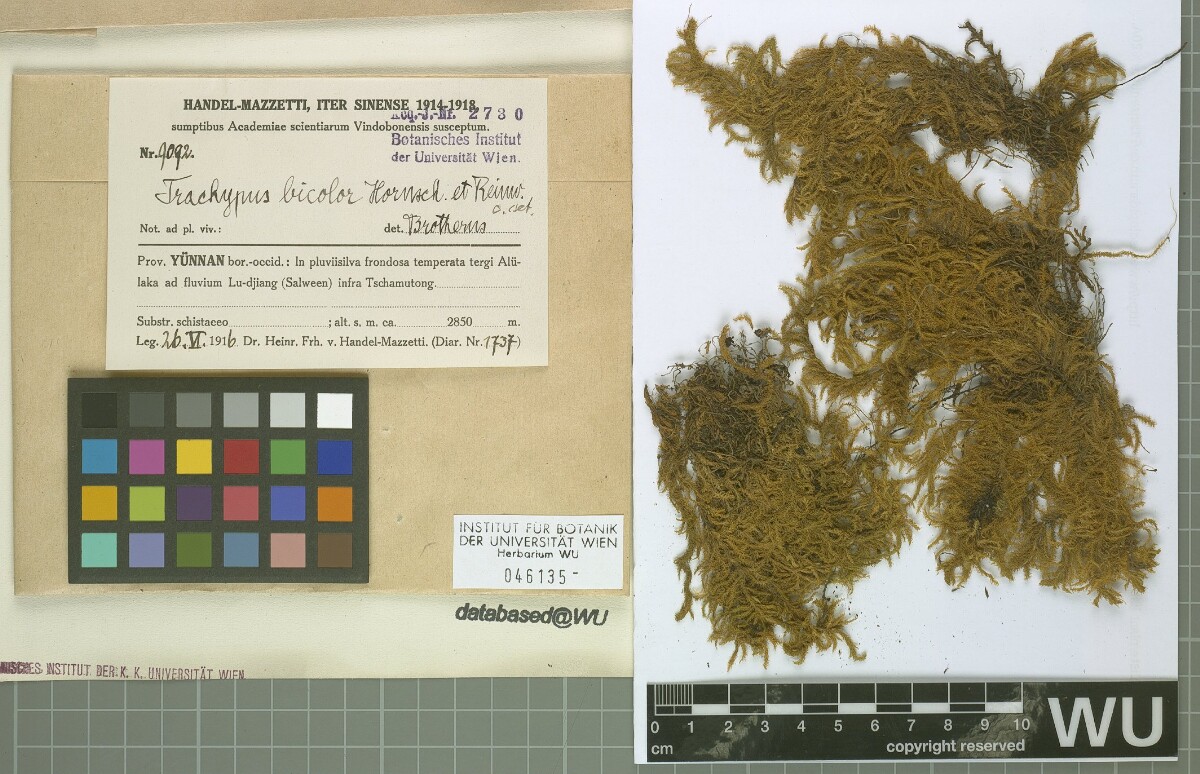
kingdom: Plantae
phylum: Bryophyta
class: Bryopsida
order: Hypnales
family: Meteoriaceae
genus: Trachypus
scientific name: Trachypus bicolor
